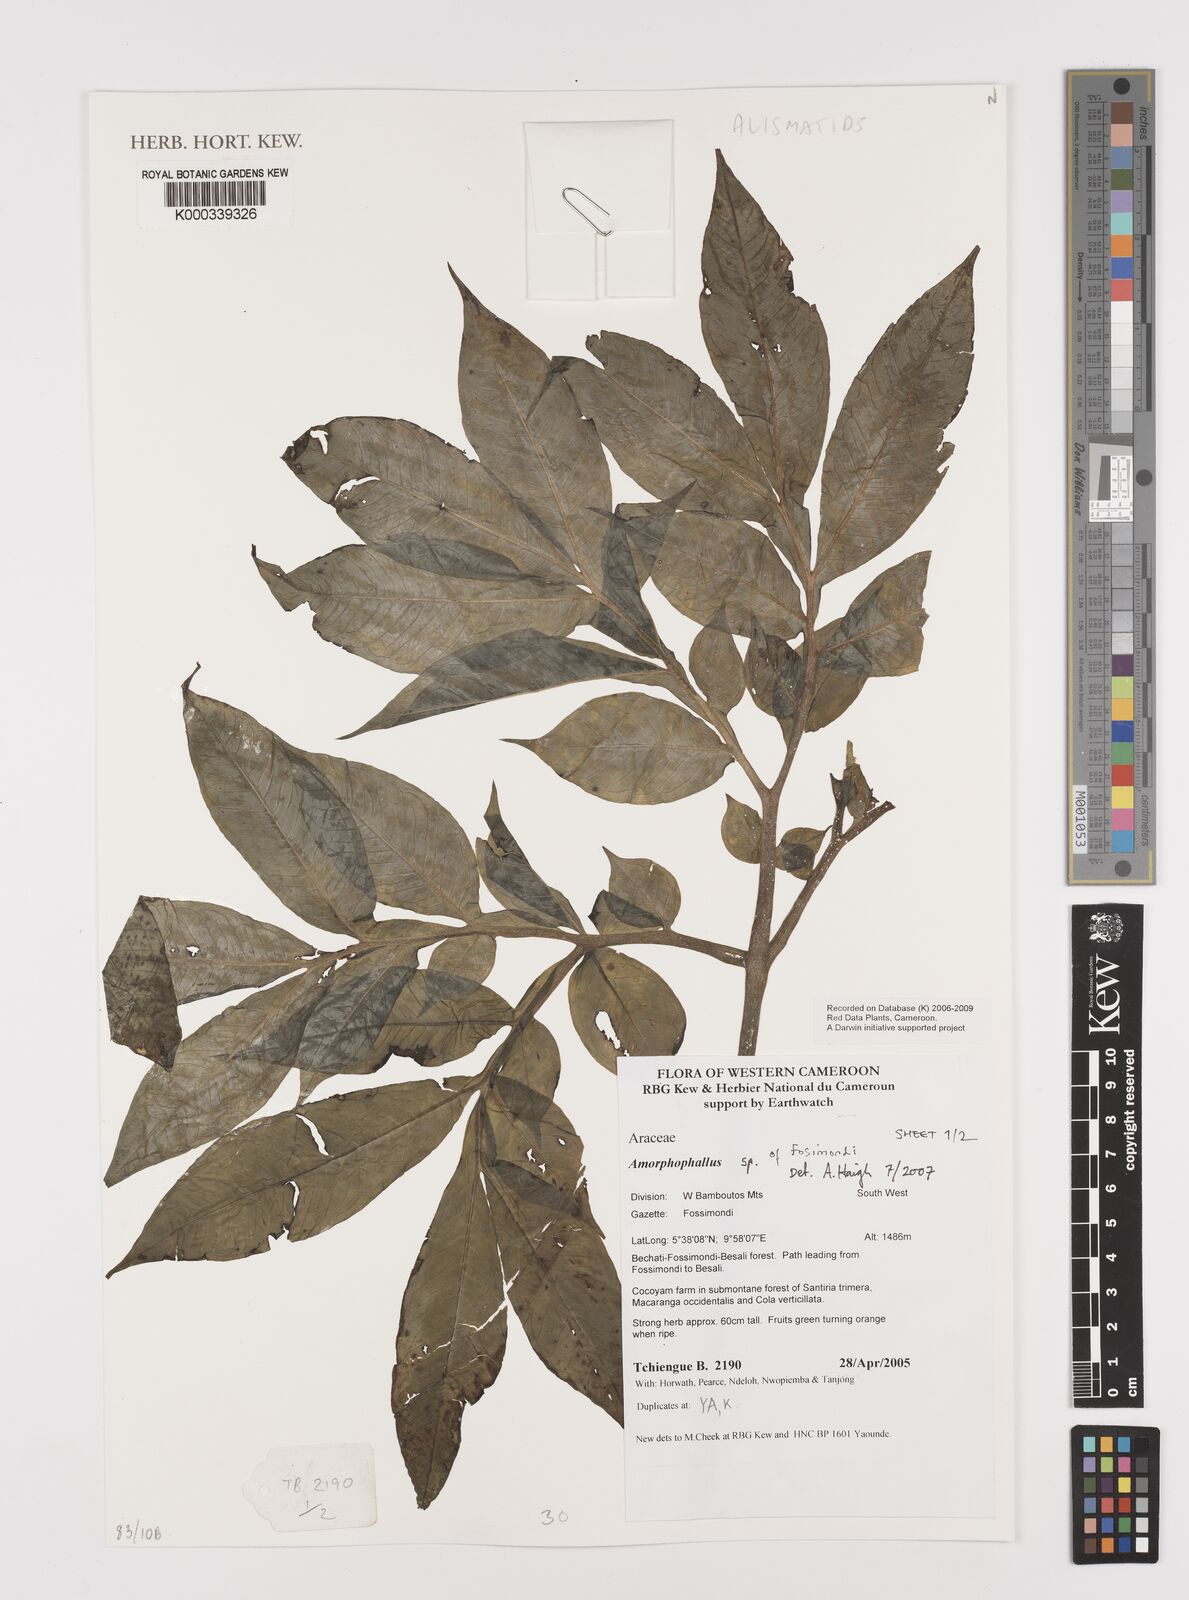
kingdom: Plantae
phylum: Tracheophyta
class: Liliopsida
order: Alismatales
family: Araceae
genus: Amorphophallus
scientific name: Amorphophallus
